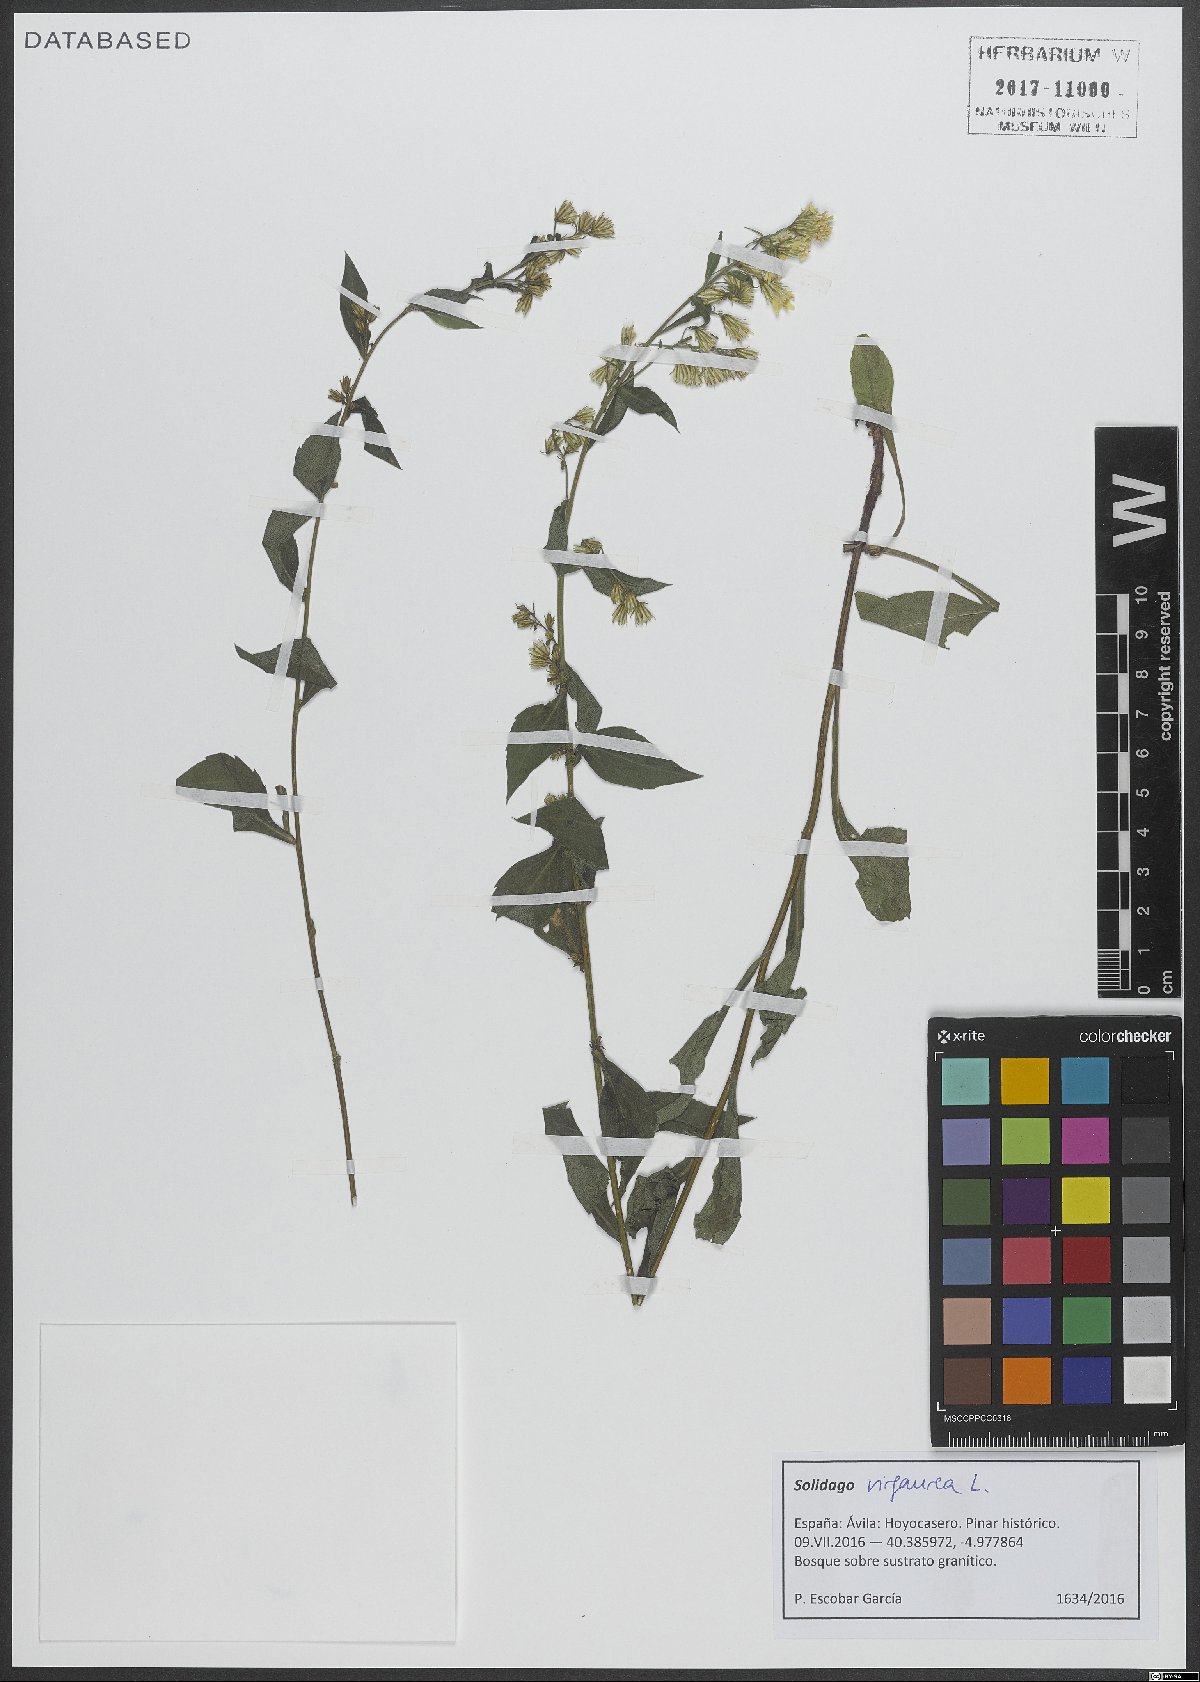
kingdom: Plantae
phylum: Tracheophyta
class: Magnoliopsida
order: Asterales
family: Asteraceae
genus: Solidago
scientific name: Solidago virgaurea
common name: Goldenrod
